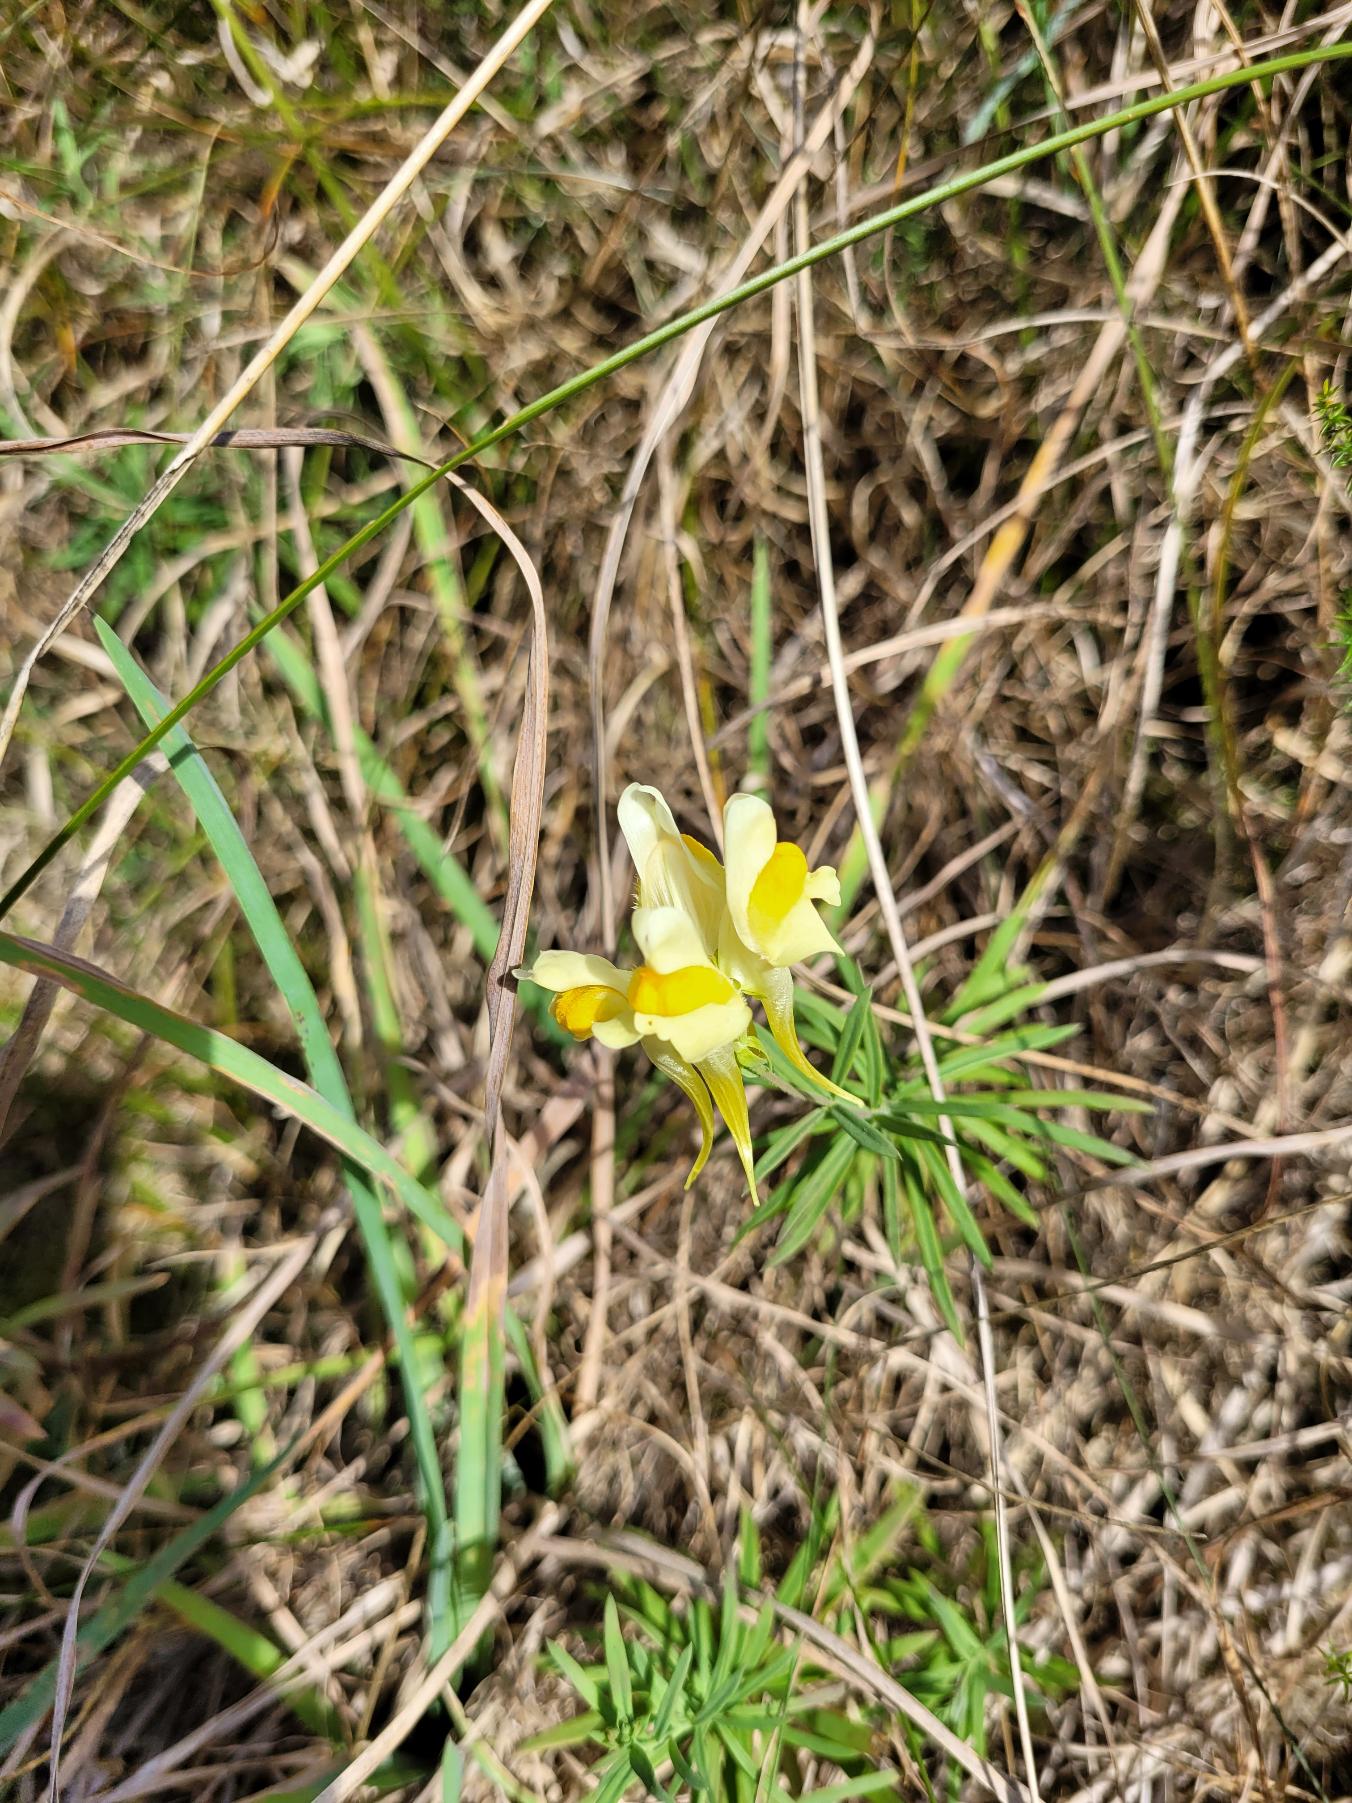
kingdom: Plantae
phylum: Tracheophyta
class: Magnoliopsida
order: Lamiales
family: Plantaginaceae
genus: Linaria
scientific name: Linaria vulgaris
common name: Almindelig torskemund
